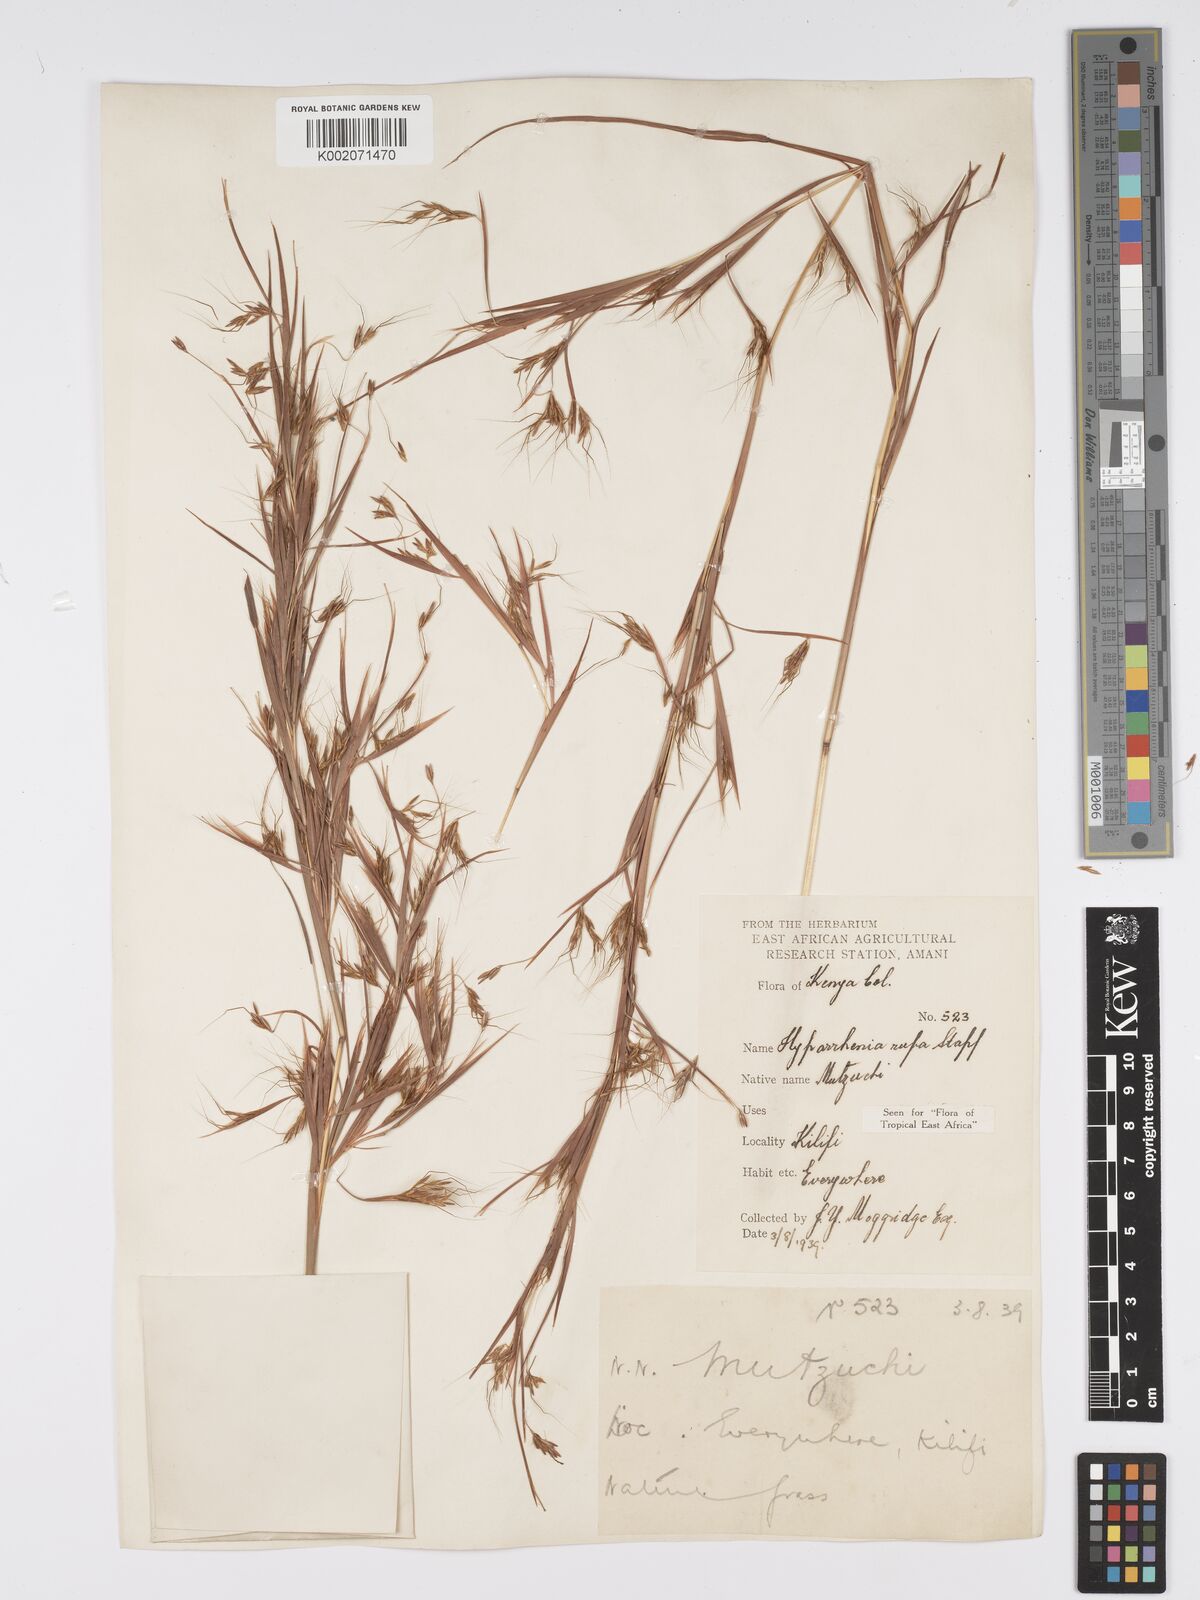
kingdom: Plantae
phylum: Tracheophyta
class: Liliopsida
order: Poales
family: Poaceae
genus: Hyparrhenia
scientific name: Hyparrhenia rufa
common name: Jaraguagrass
